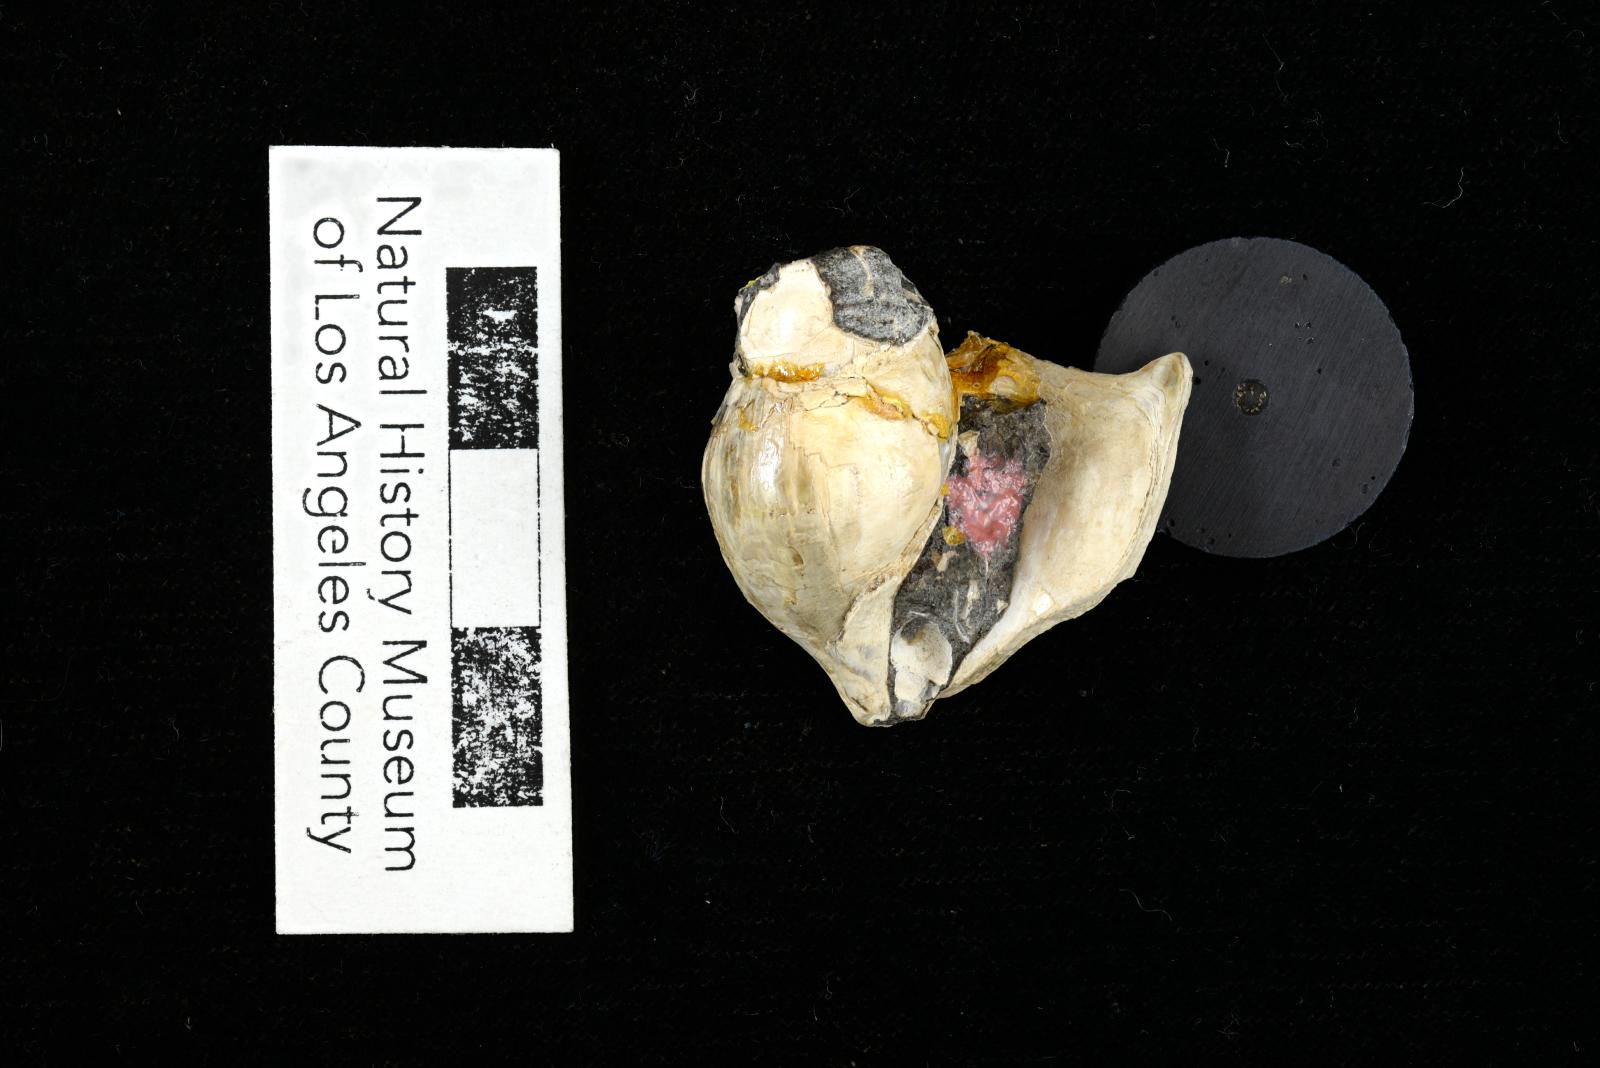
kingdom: Animalia
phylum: Mollusca
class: Gastropoda
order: Littorinimorpha
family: Aporrhaidae
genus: Latiala
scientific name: Latiala sigma
